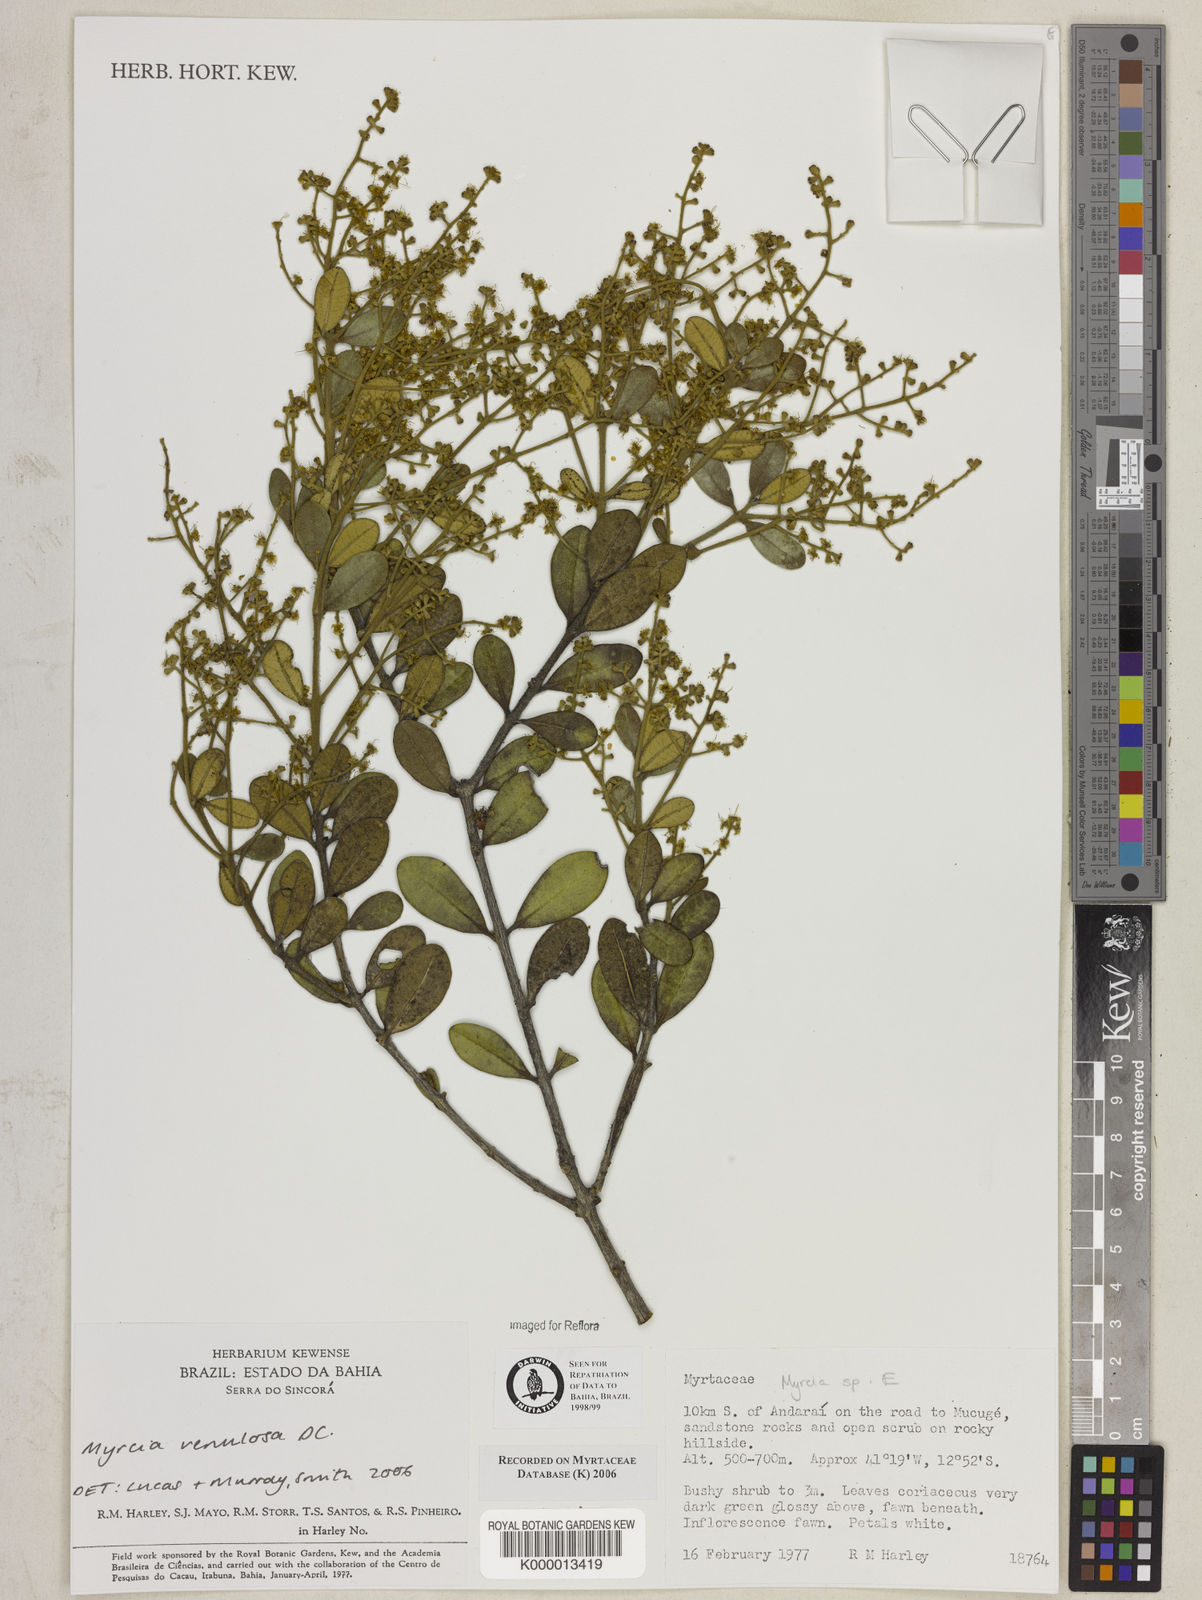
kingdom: Plantae
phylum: Tracheophyta
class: Magnoliopsida
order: Myrtales
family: Myrtaceae
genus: Myrcia
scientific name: Myrcia
